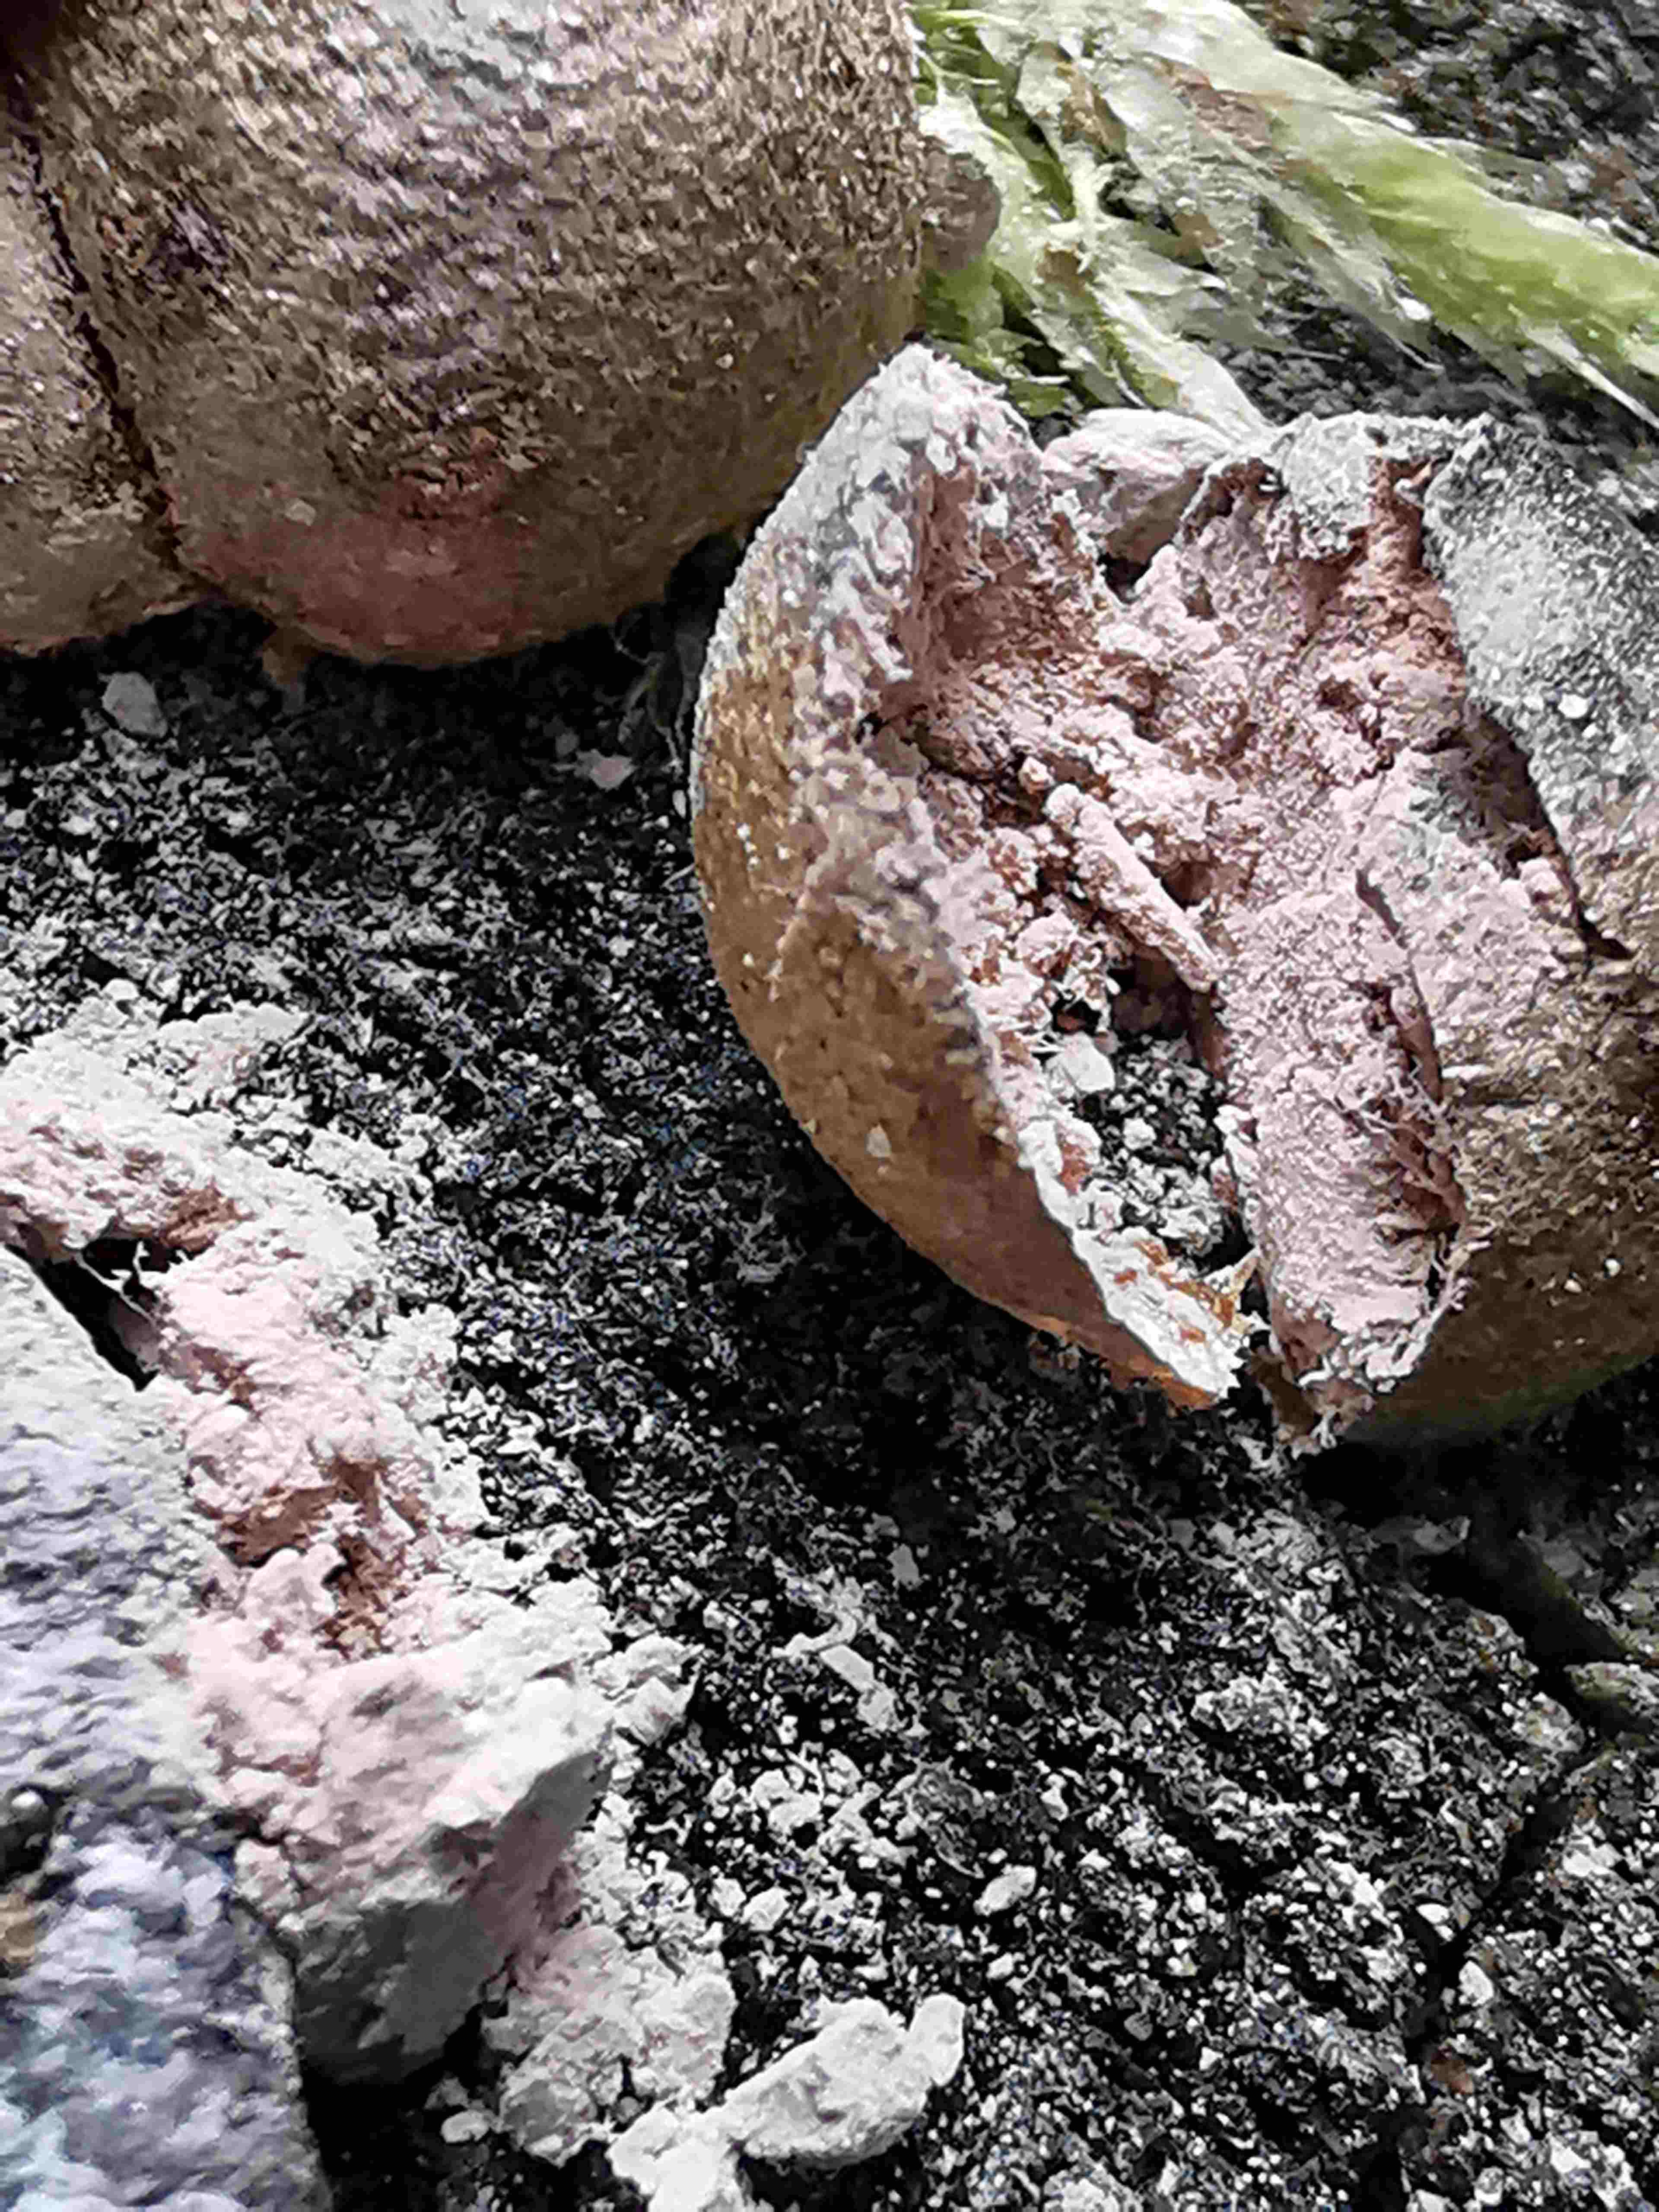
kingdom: Protozoa
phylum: Mycetozoa
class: Myxomycetes
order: Cribrariales
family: Tubiferaceae
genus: Lycogala
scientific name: Lycogala epidendrum
